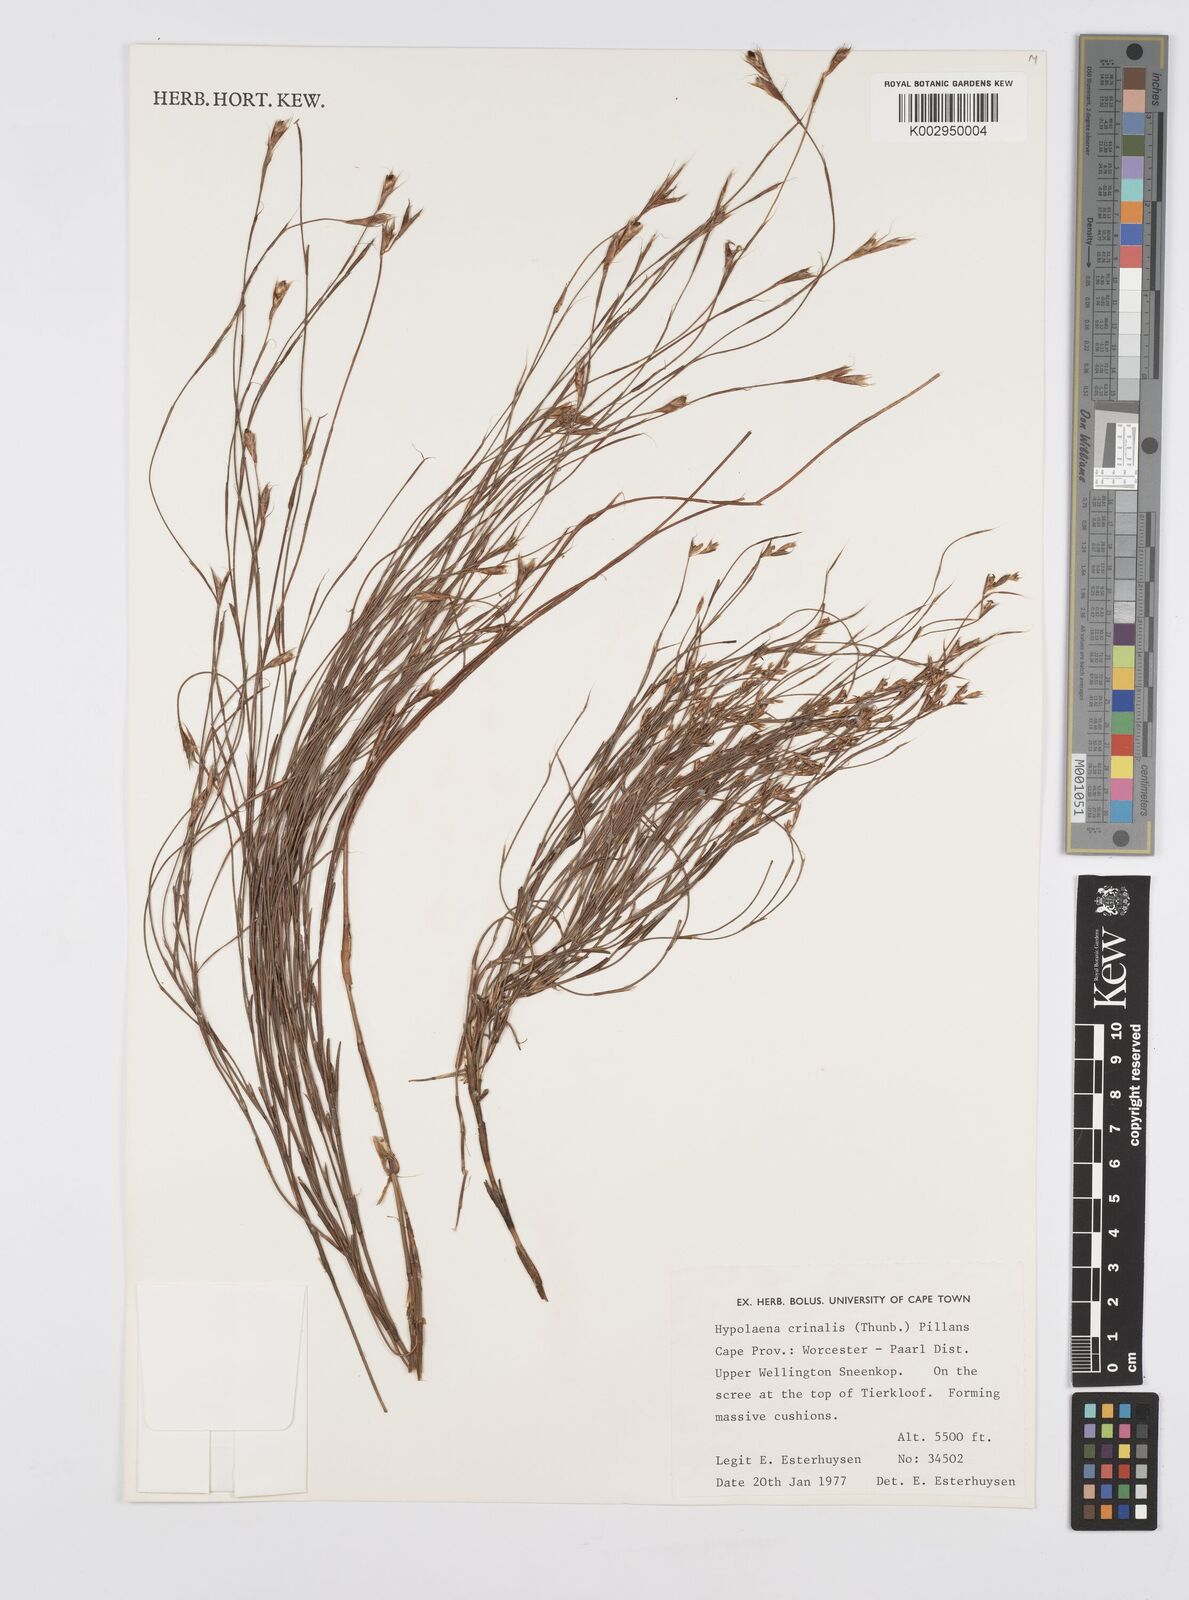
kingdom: Plantae
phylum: Tracheophyta
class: Liliopsida
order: Poales
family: Restionaceae
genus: Anthochortus
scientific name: Anthochortus crinalis
